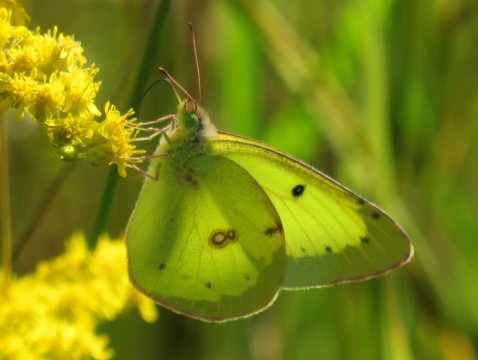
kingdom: Animalia
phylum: Arthropoda
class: Insecta
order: Lepidoptera
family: Pieridae
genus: Colias
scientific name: Colias philodice
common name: Clouded Sulphur
